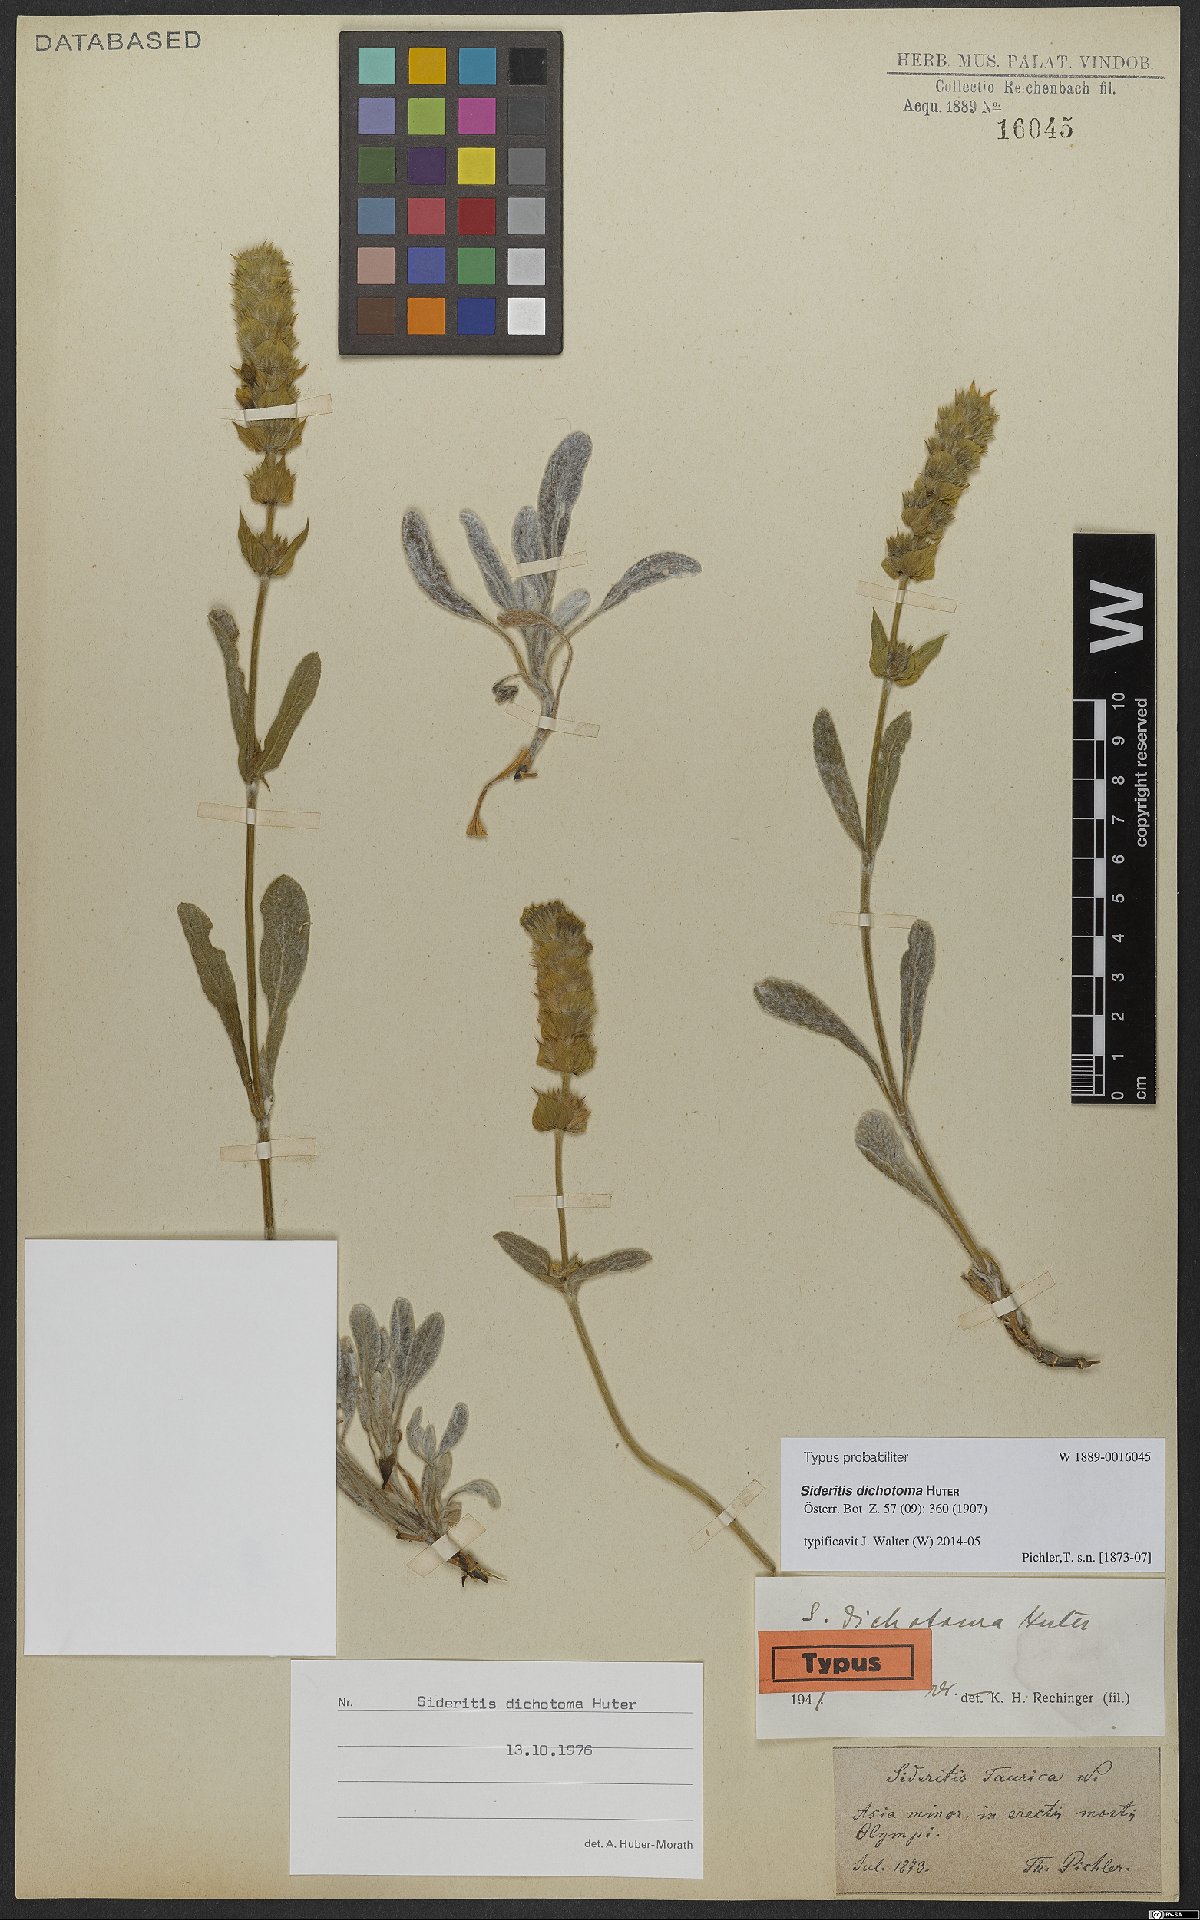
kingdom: Plantae
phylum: Tracheophyta
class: Magnoliopsida
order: Lamiales
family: Lamiaceae
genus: Sideritis
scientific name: Sideritis dichotoma
